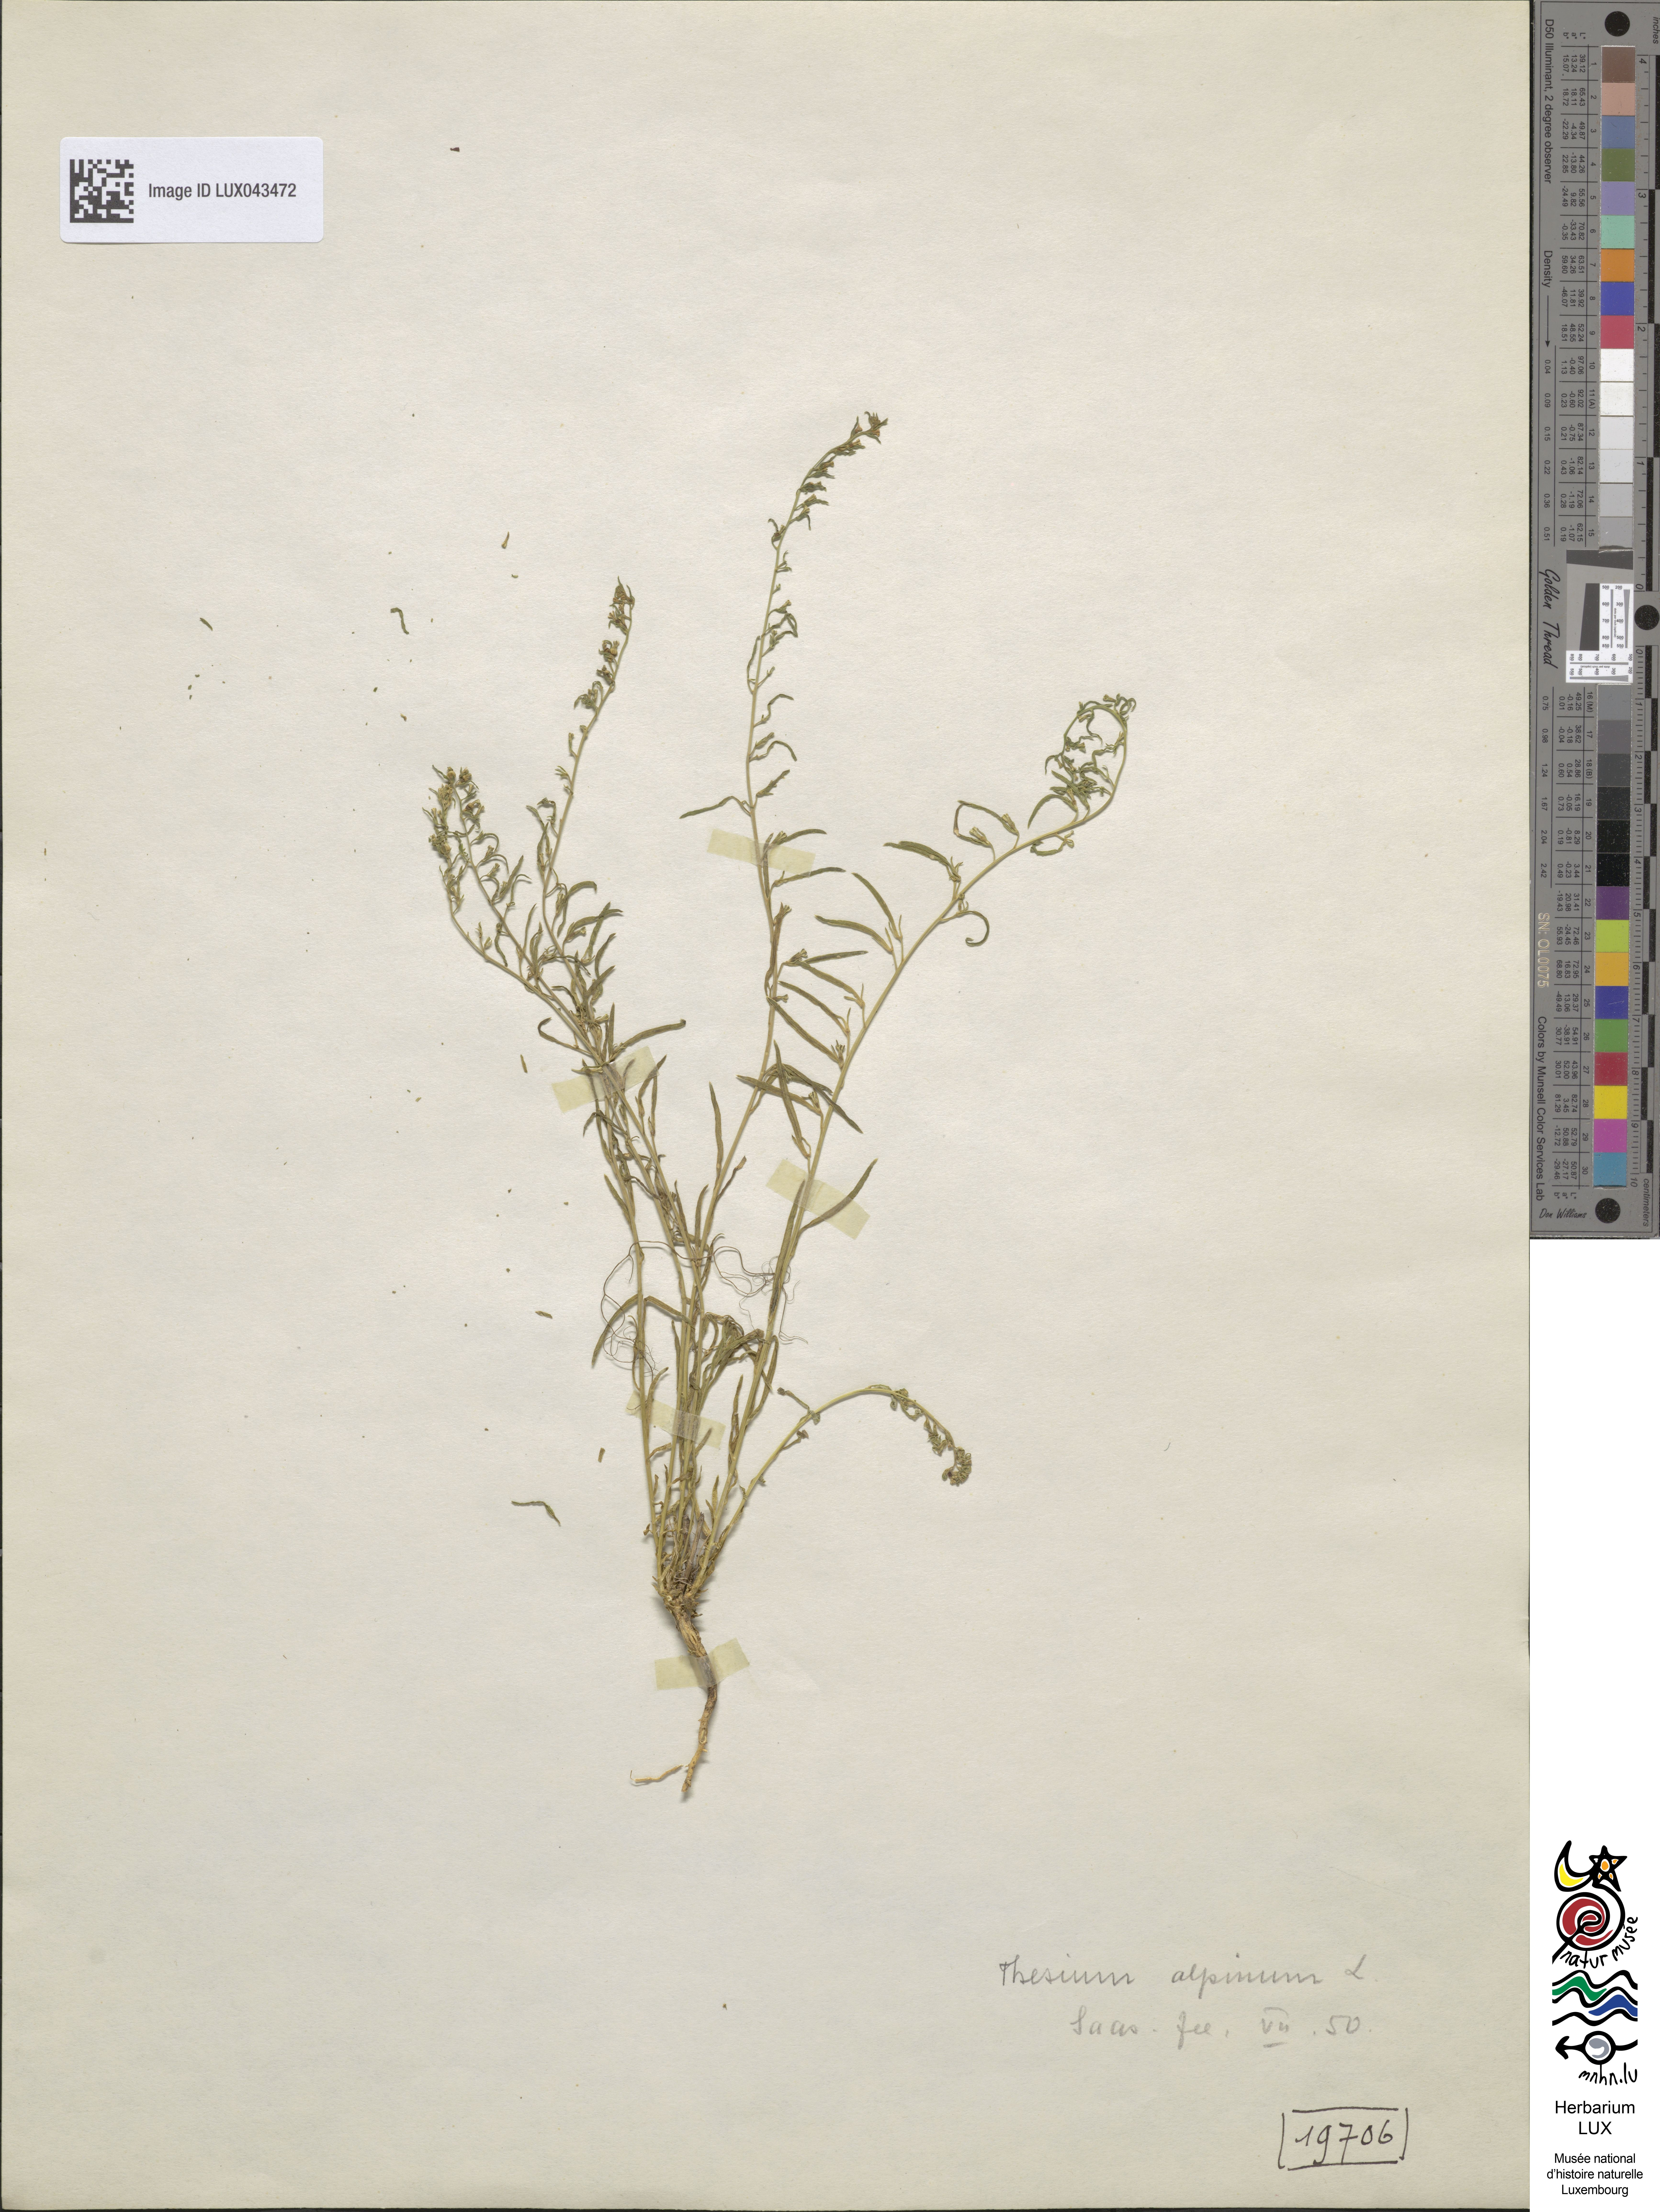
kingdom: Plantae
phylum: Tracheophyta
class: Magnoliopsida
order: Santalales
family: Thesiaceae
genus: Thesium
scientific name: Thesium alpinum
